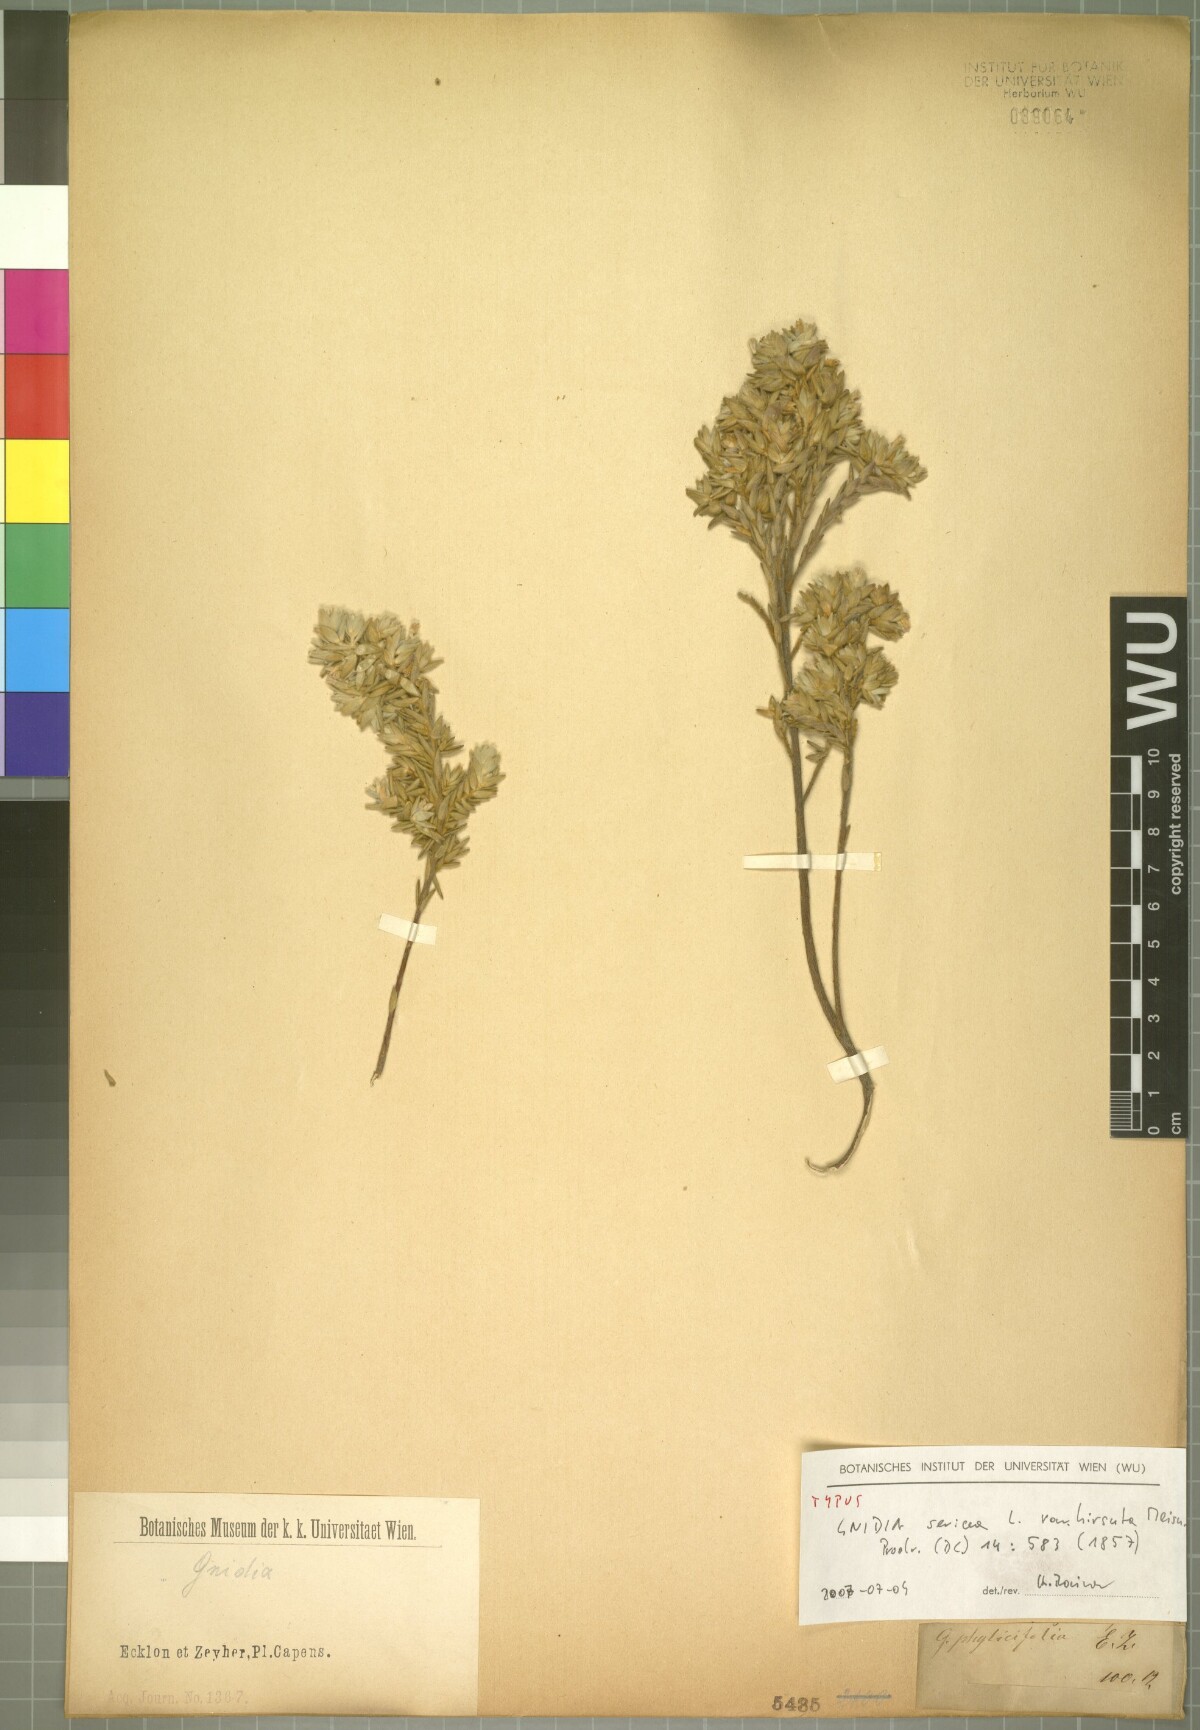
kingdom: Plantae
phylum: Tracheophyta
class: Magnoliopsida
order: Malvales
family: Thymelaeaceae
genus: Gnidia
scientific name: Gnidia sericea
